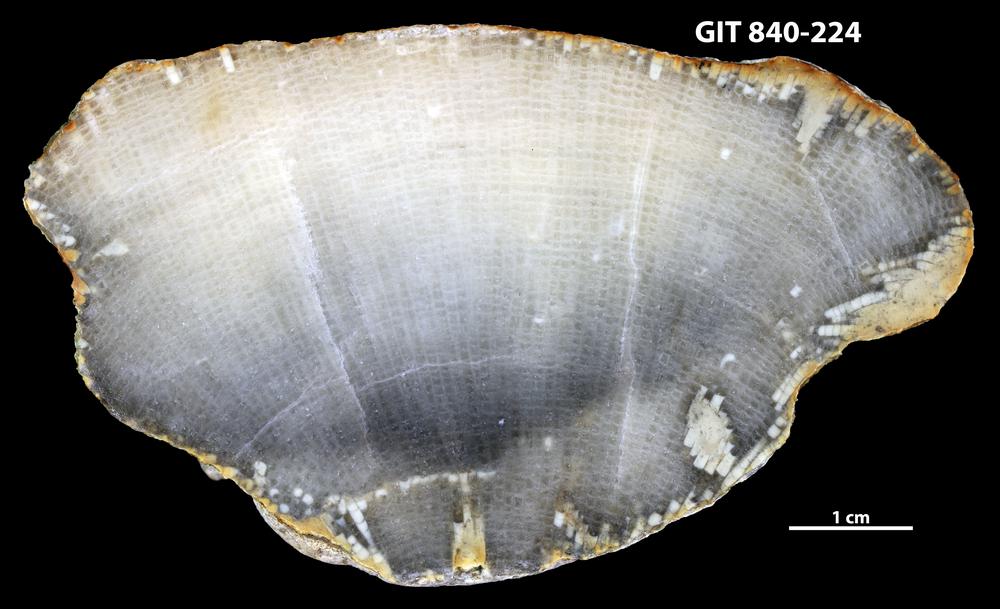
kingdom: Animalia
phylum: Cnidaria
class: Anthozoa
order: Heliolitina
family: Proheliolitidae
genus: Protoheliolites
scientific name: Protoheliolites
